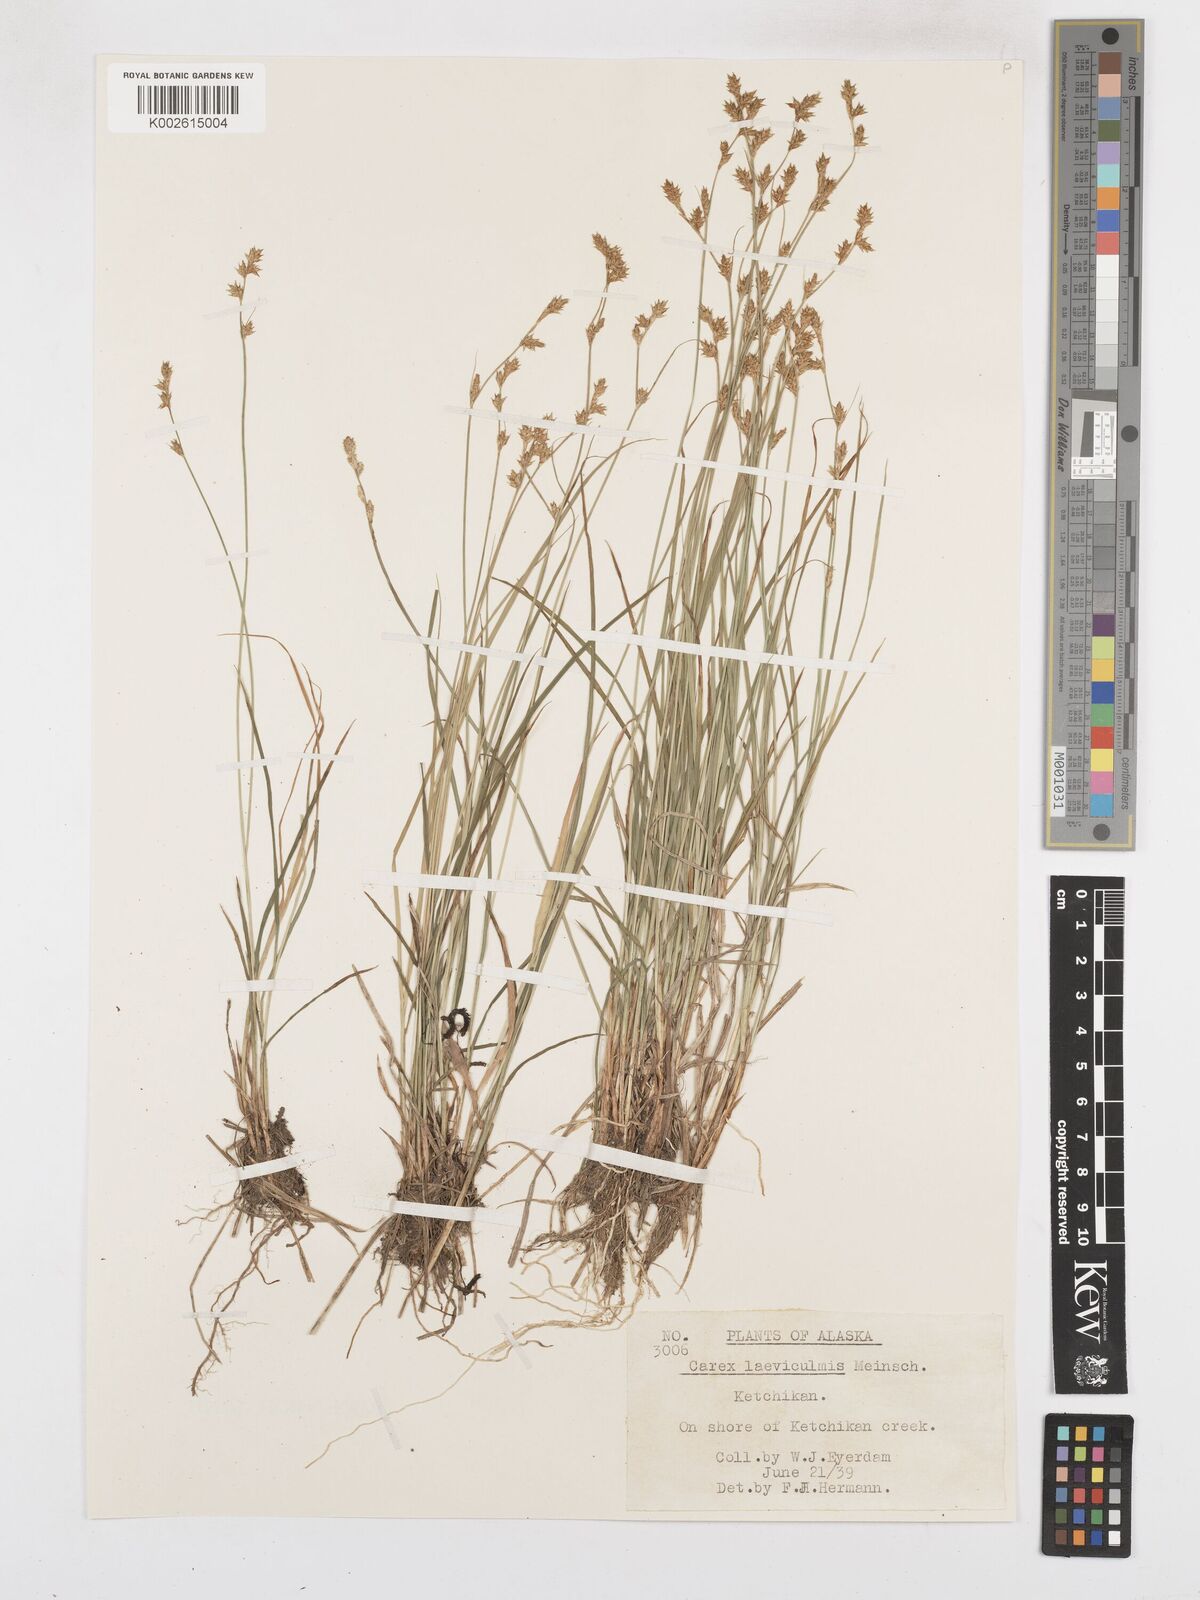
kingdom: Plantae
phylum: Tracheophyta
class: Liliopsida
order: Poales
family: Cyperaceae
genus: Carex
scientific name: Carex laeviculmis
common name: Smooth sedge
